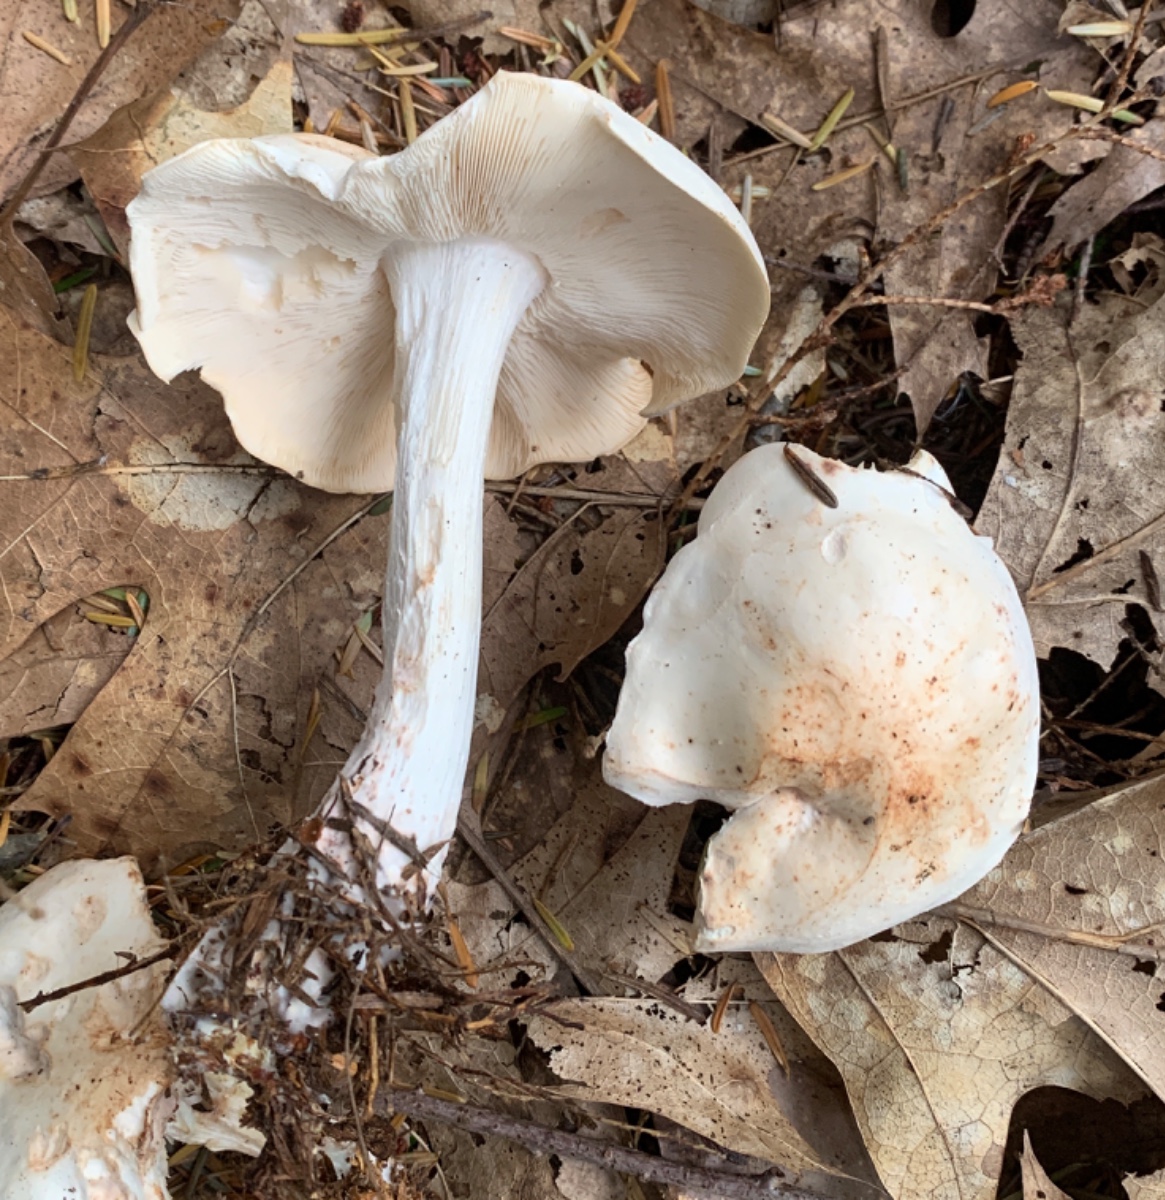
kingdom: Fungi
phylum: Basidiomycota
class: Agaricomycetes
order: Agaricales
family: Omphalotaceae
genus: Rhodocollybia
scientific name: Rhodocollybia maculata
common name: plettet fladhat
